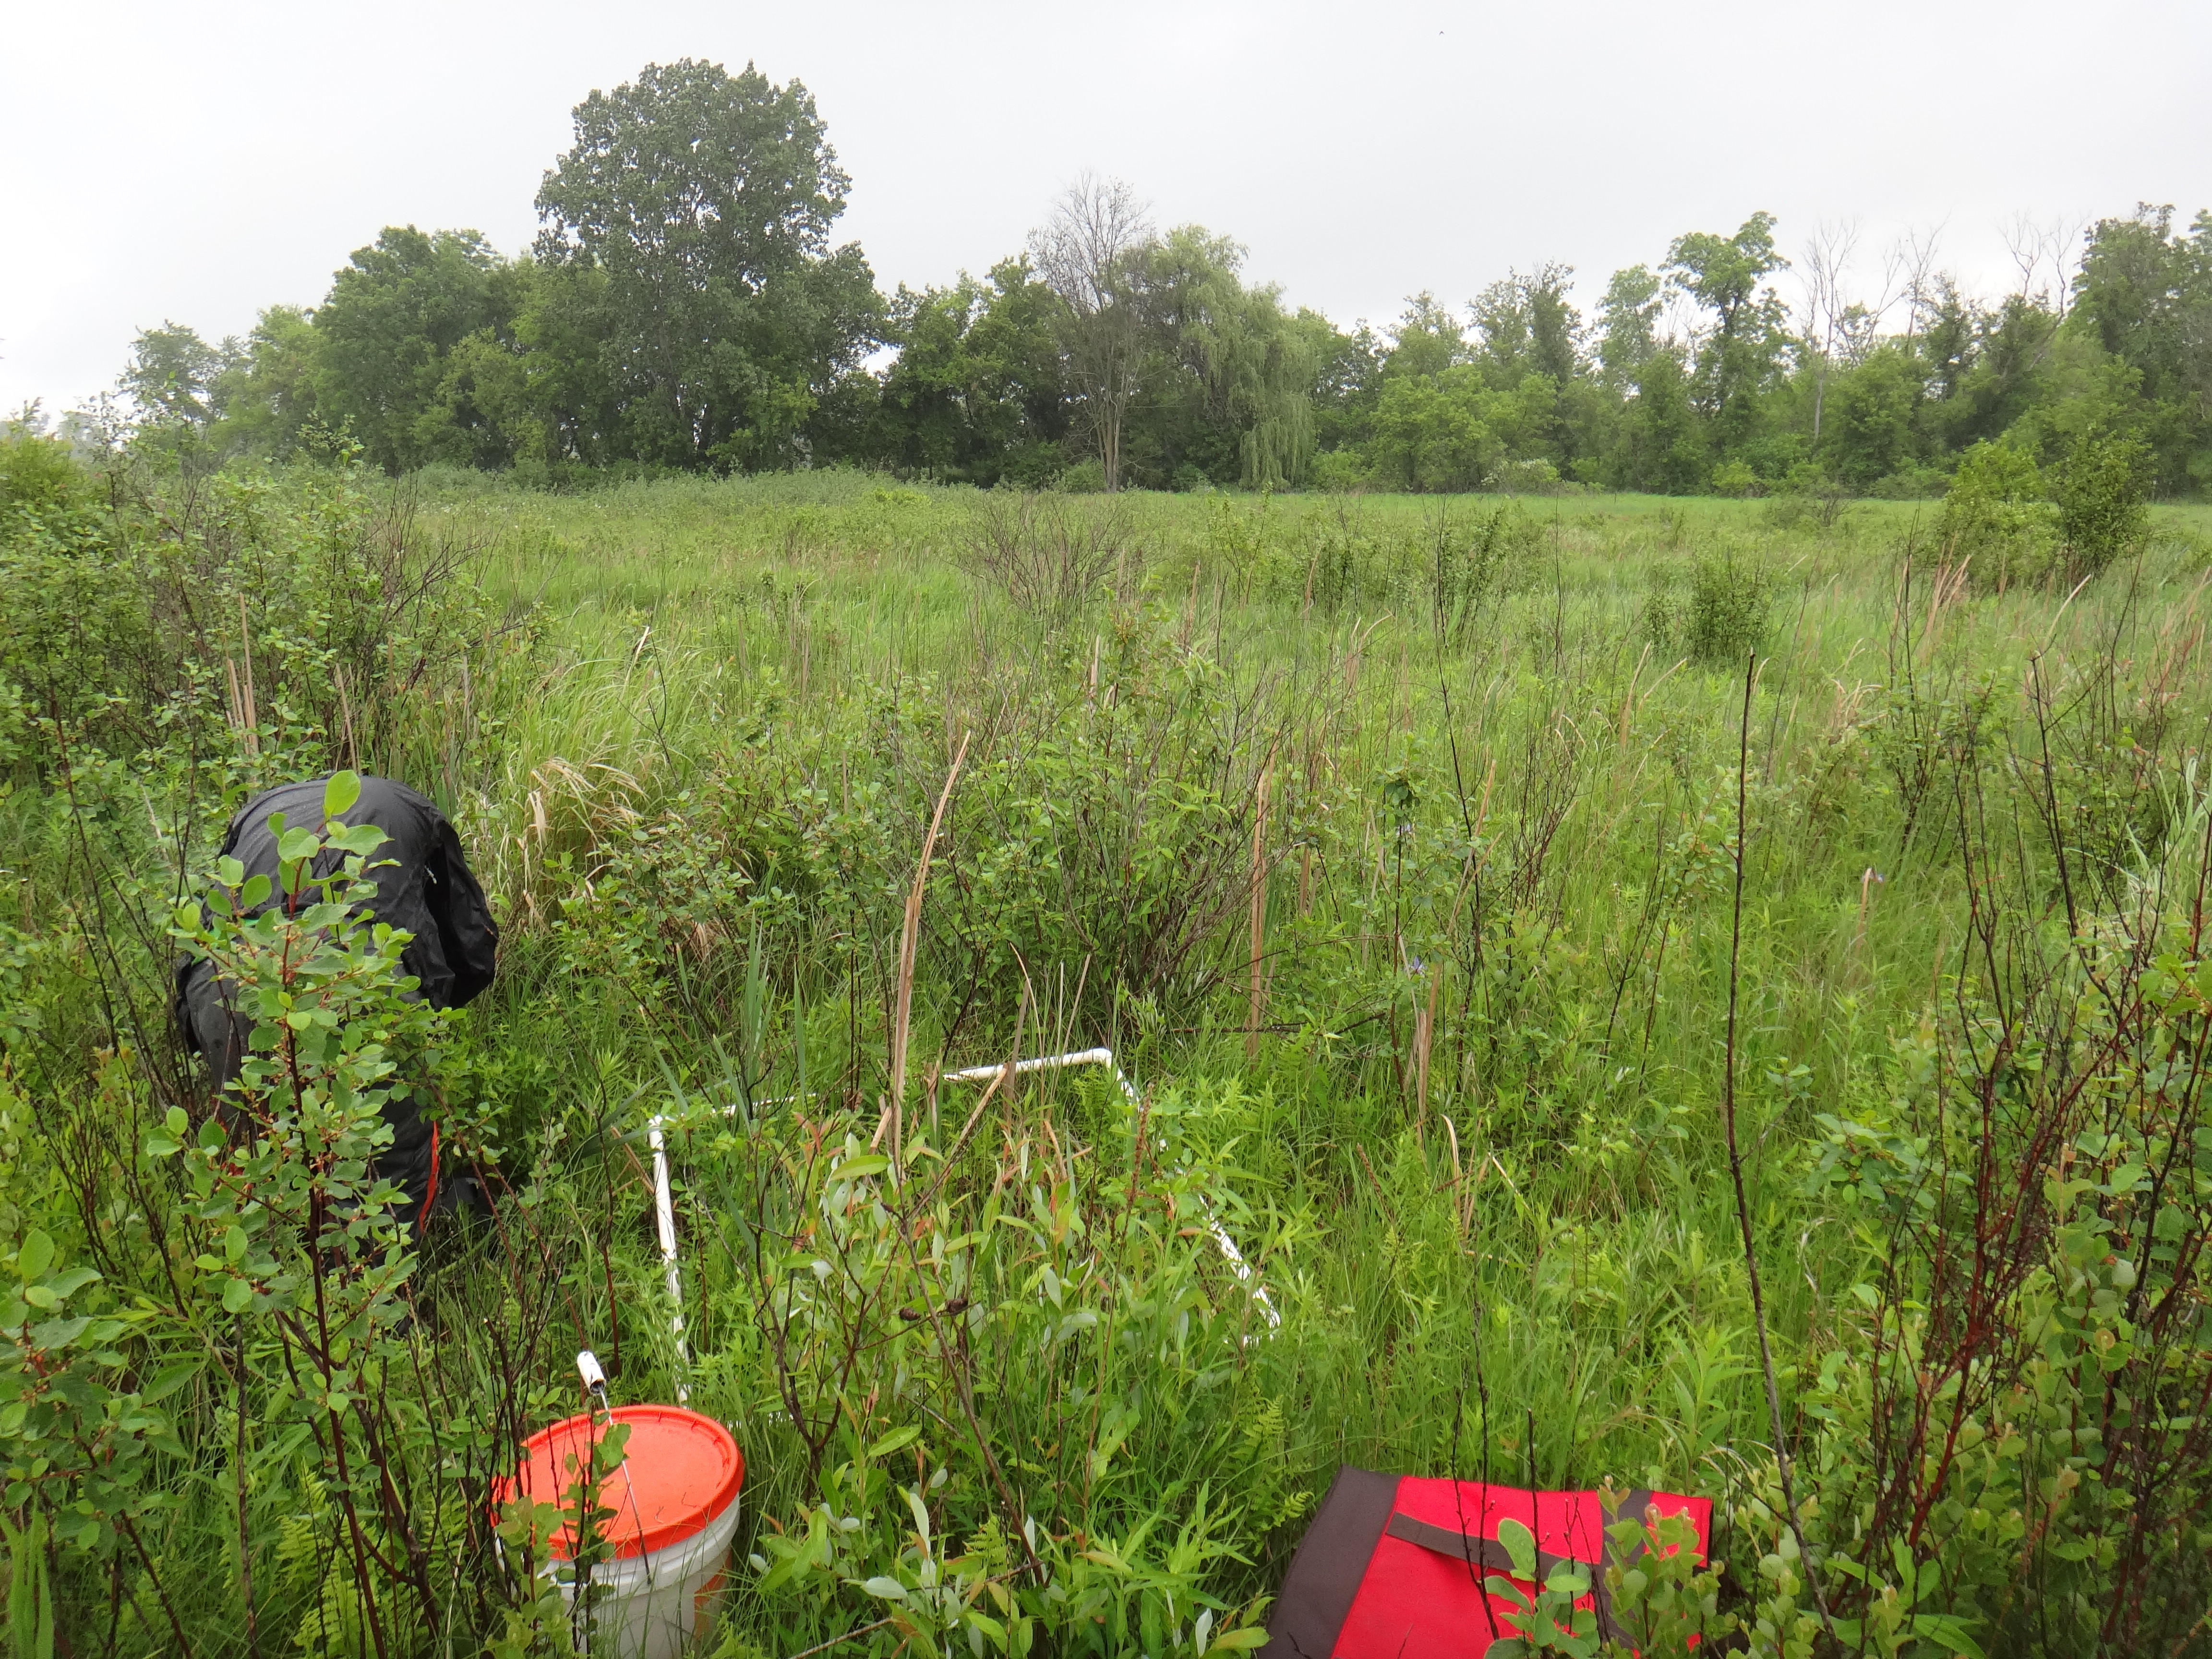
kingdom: Plantae
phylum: Tracheophyta
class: Liliopsida
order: Poales
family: Poaceae
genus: Glyceria
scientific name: Glyceria striata
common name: Fowl manna grass
